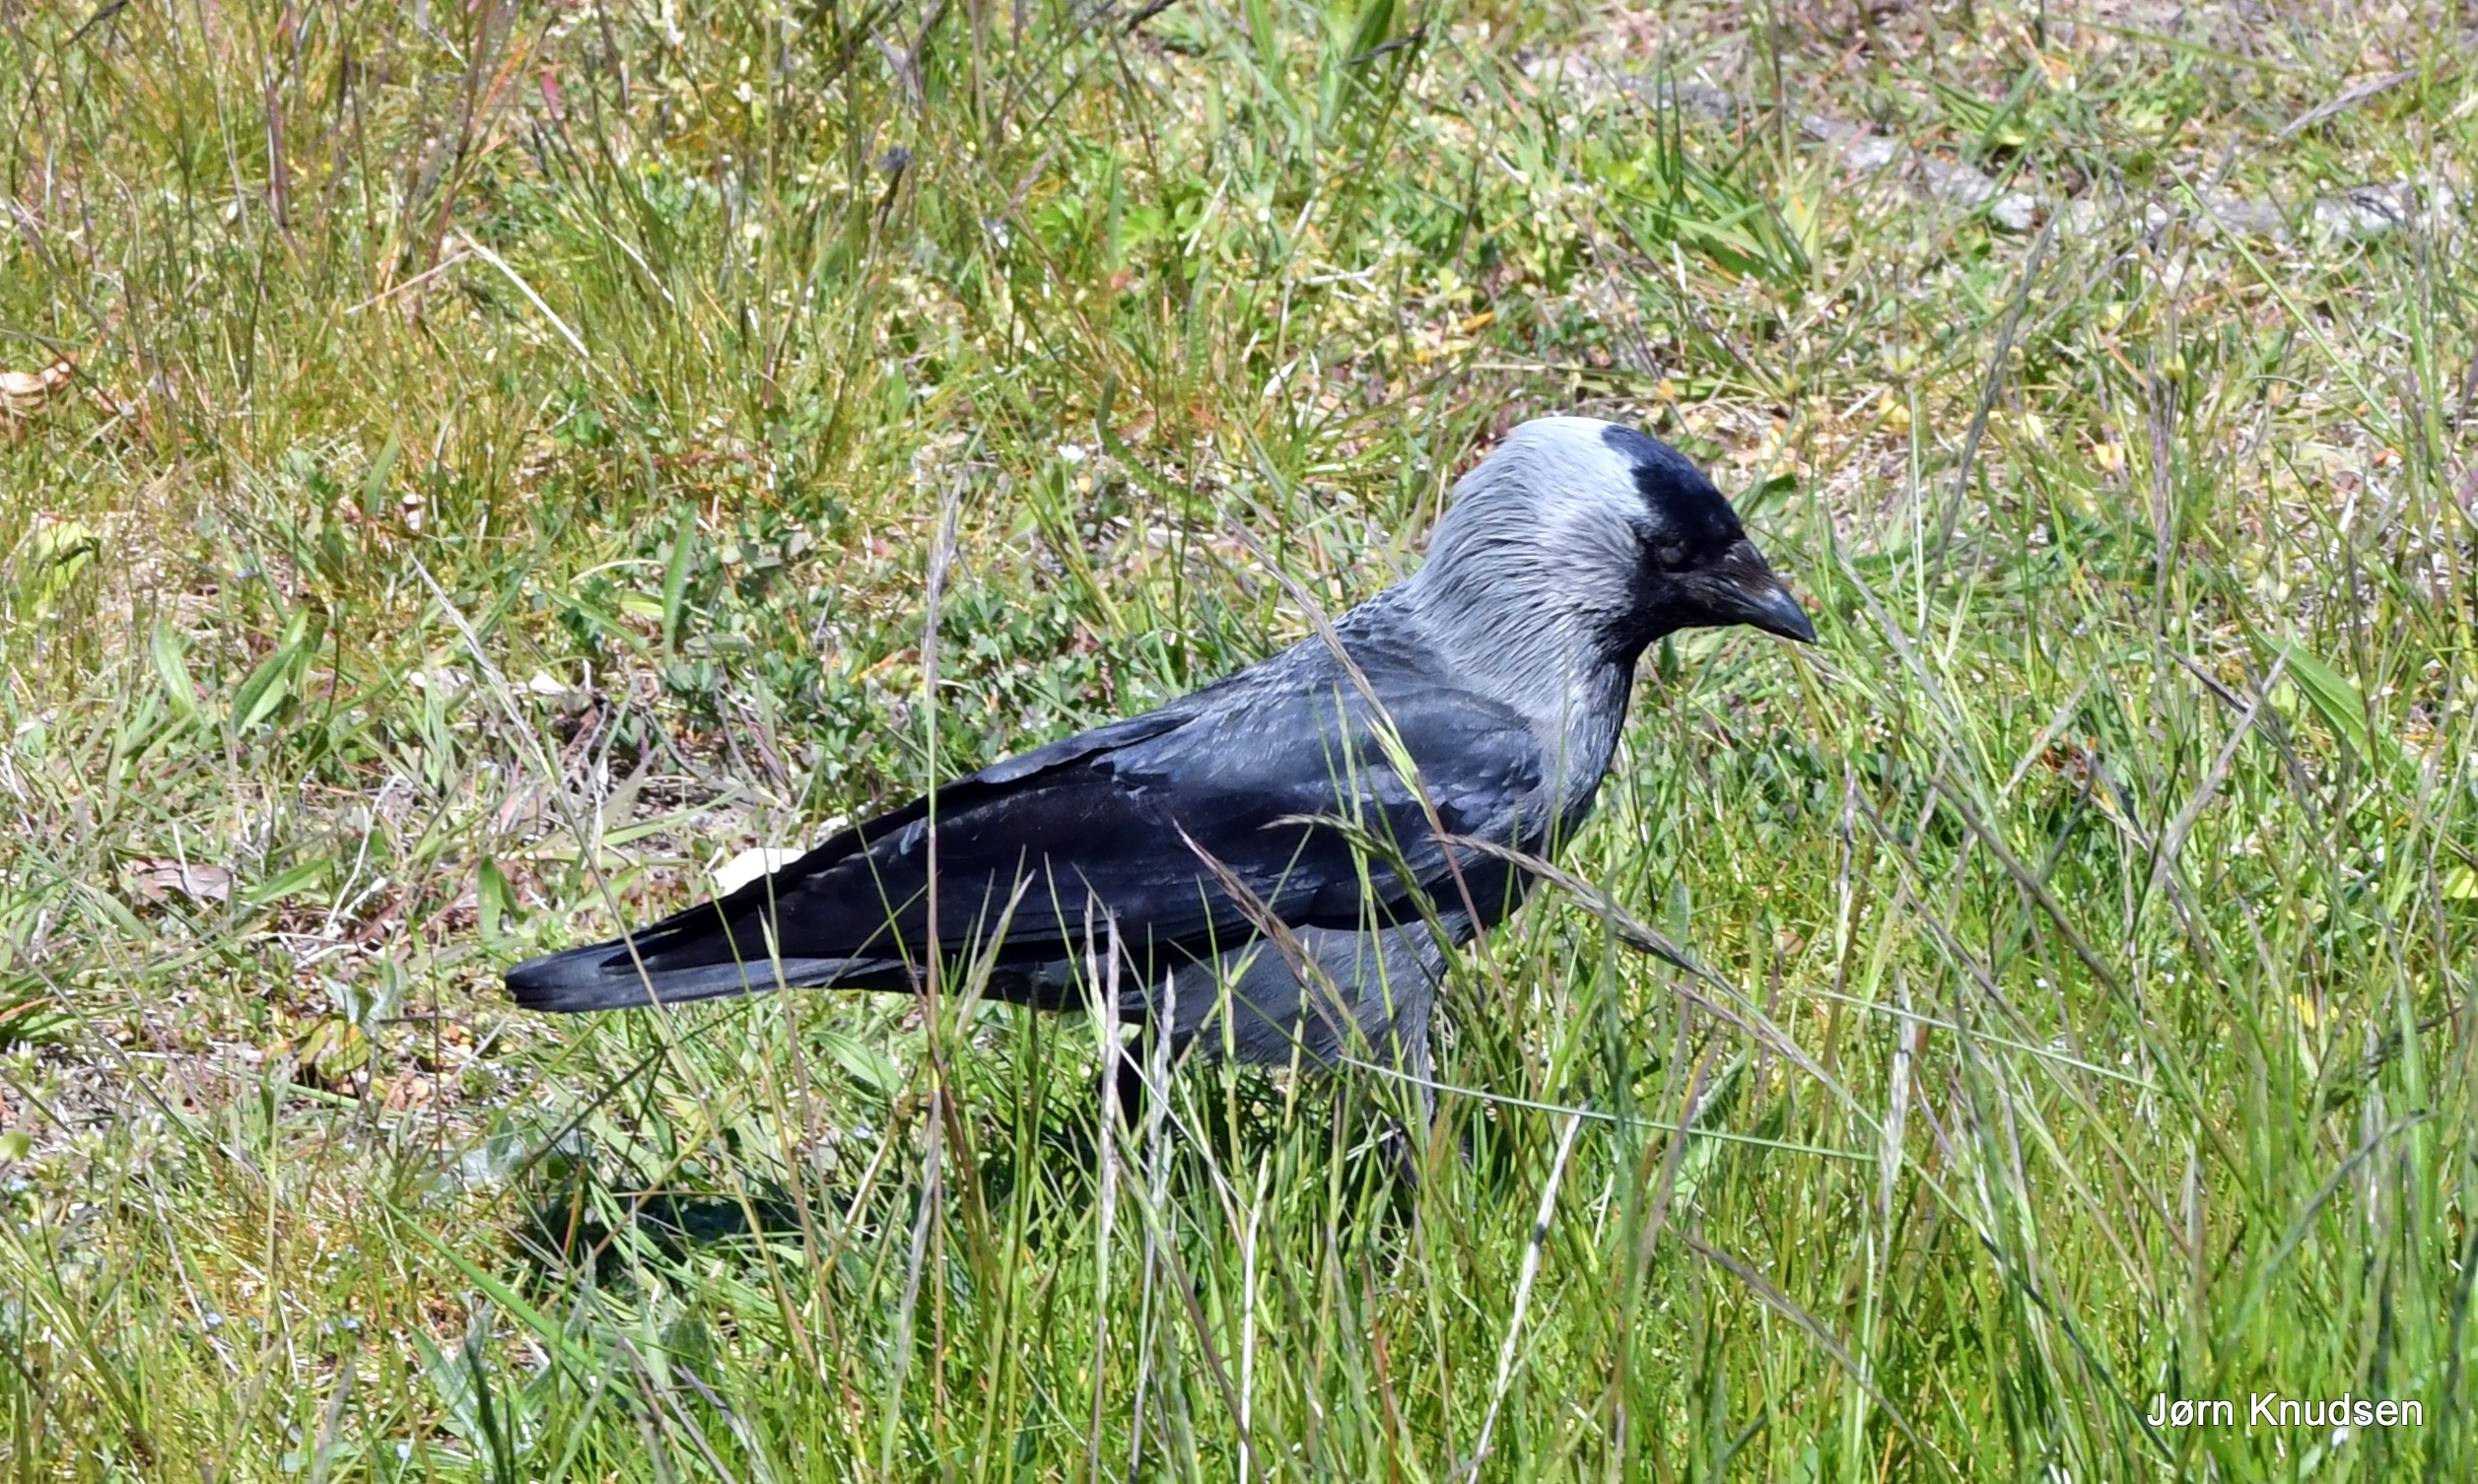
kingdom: Animalia
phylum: Chordata
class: Aves
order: Passeriformes
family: Corvidae
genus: Coloeus
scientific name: Coloeus monedula
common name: Allike
